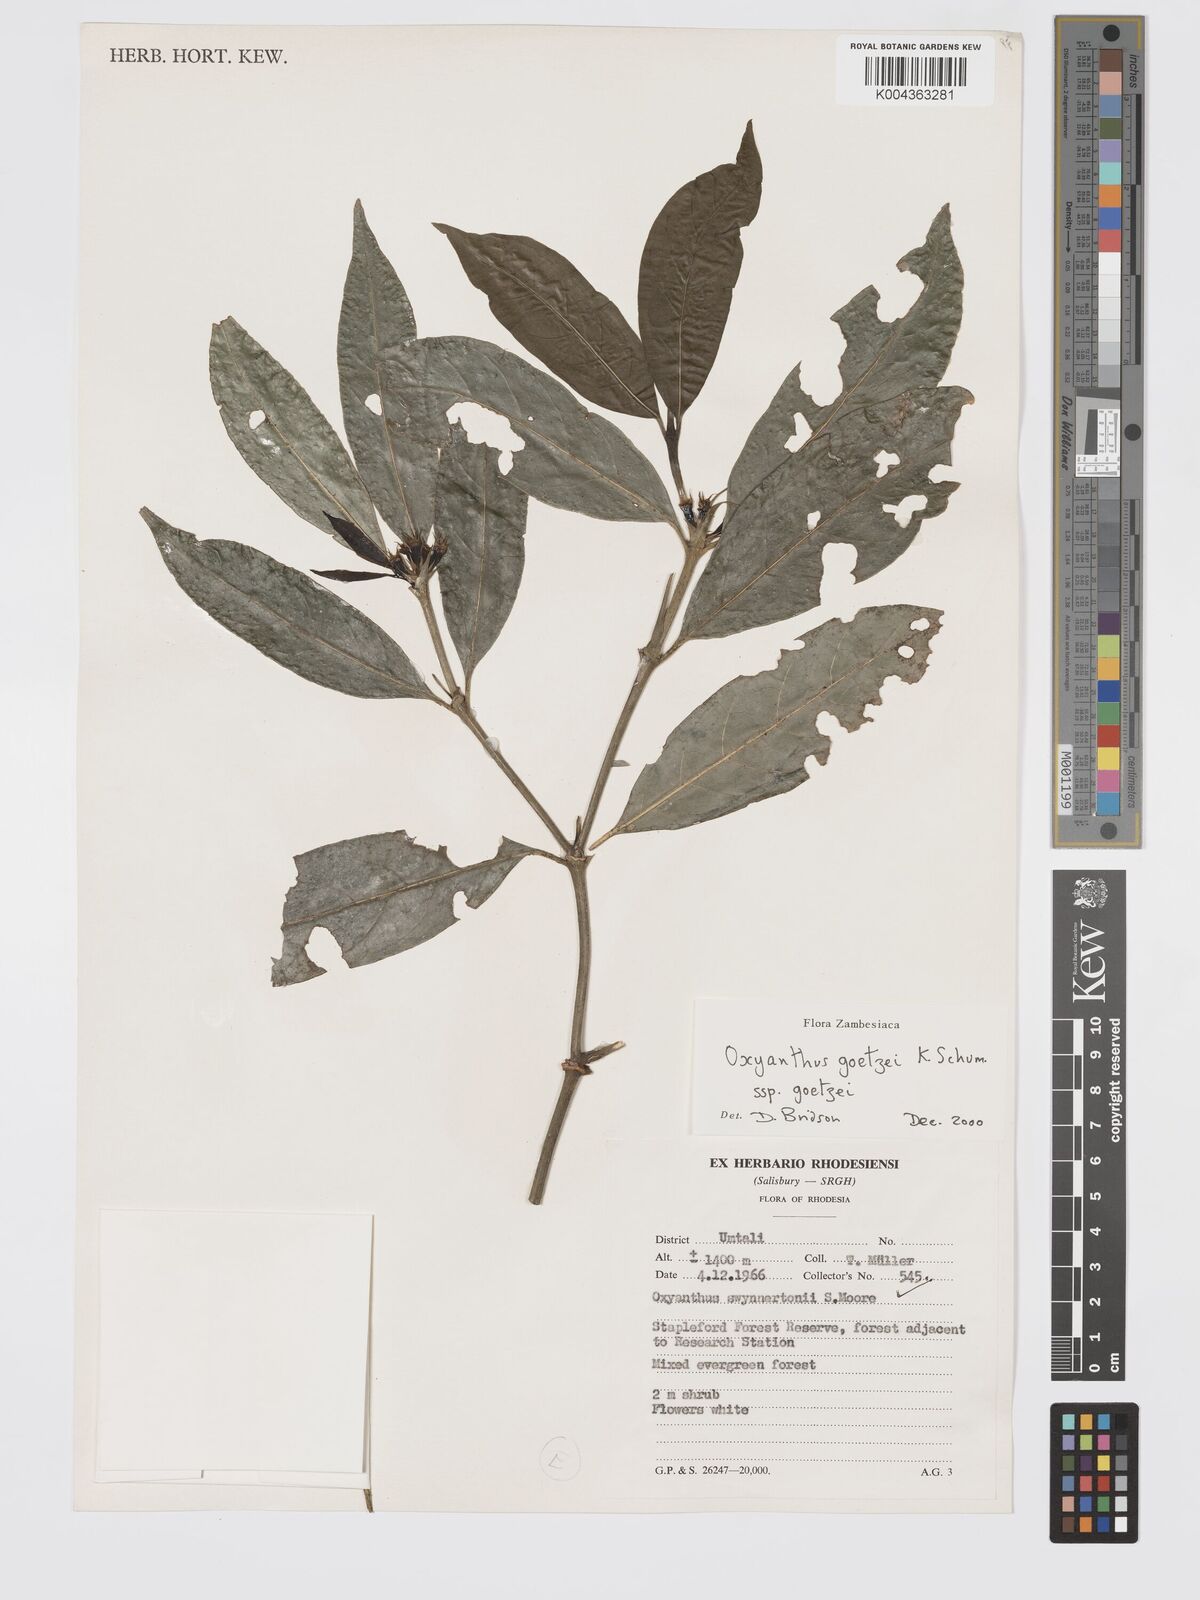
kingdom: Plantae
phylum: Tracheophyta
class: Magnoliopsida
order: Gentianales
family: Rubiaceae
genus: Oxyanthus
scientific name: Oxyanthus goetzei
